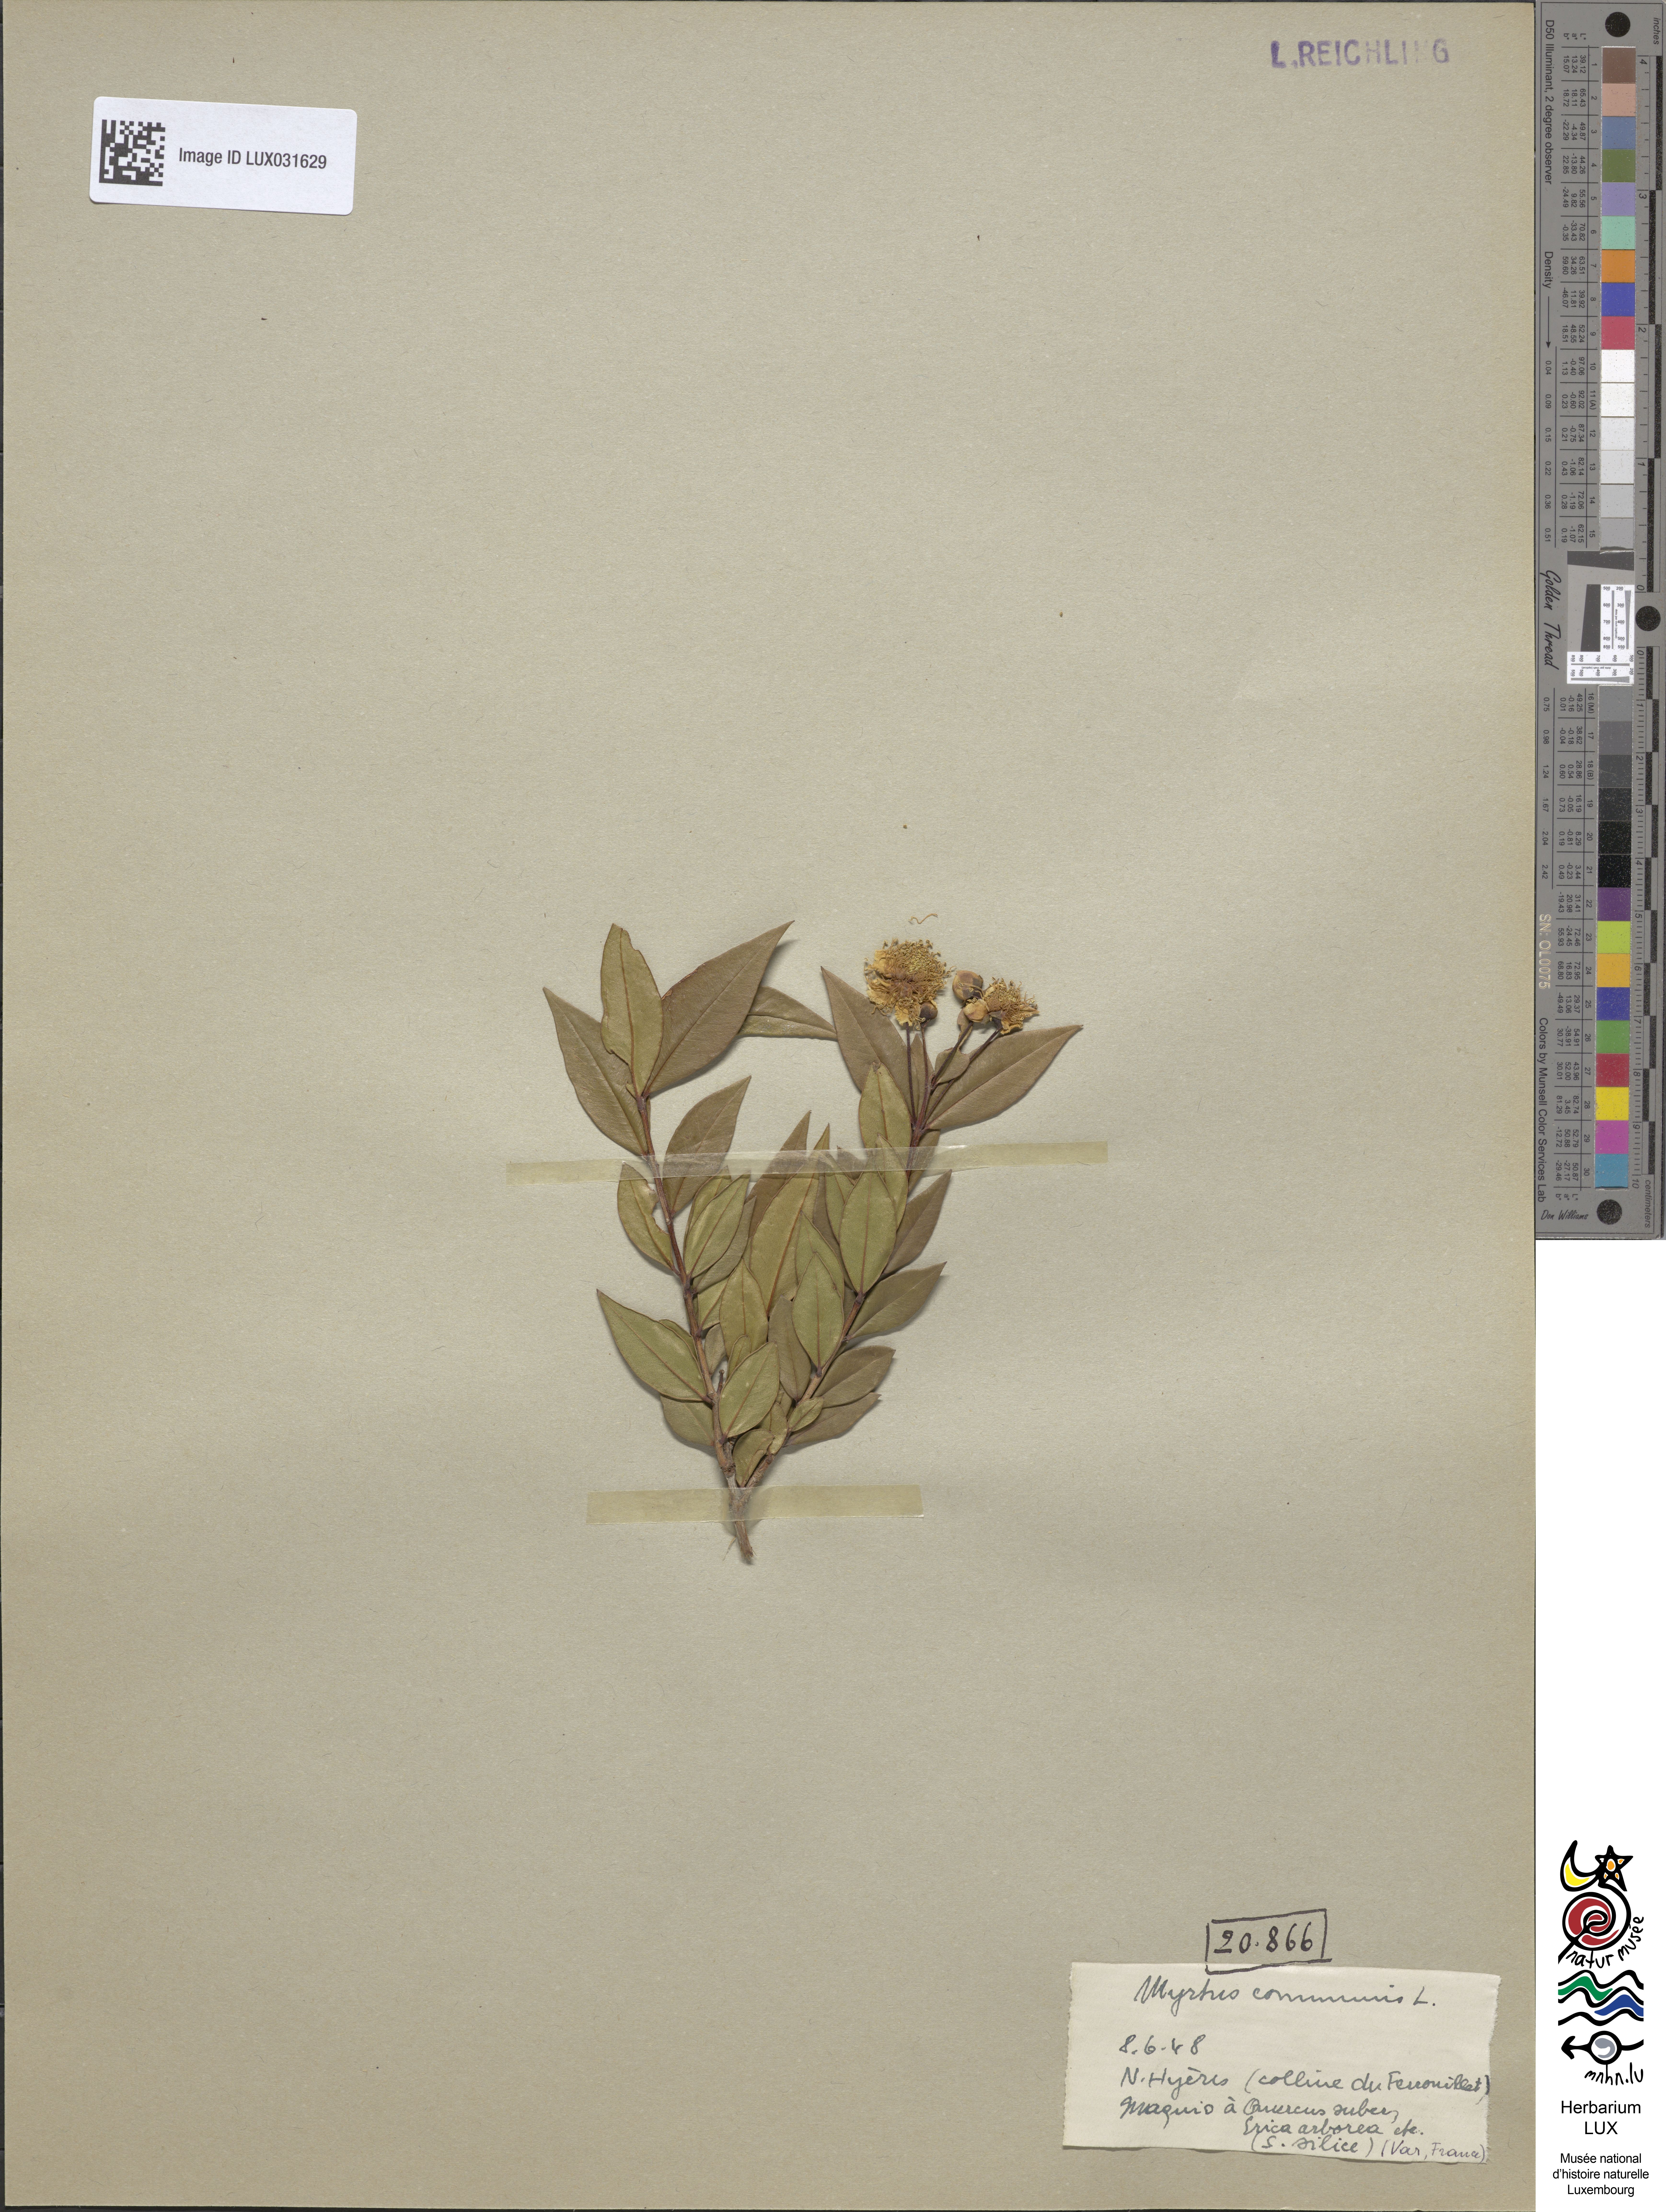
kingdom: Plantae
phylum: Tracheophyta
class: Magnoliopsida
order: Myrtales
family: Myrtaceae
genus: Myrtus
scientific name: Myrtus communis
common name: Myrtle
